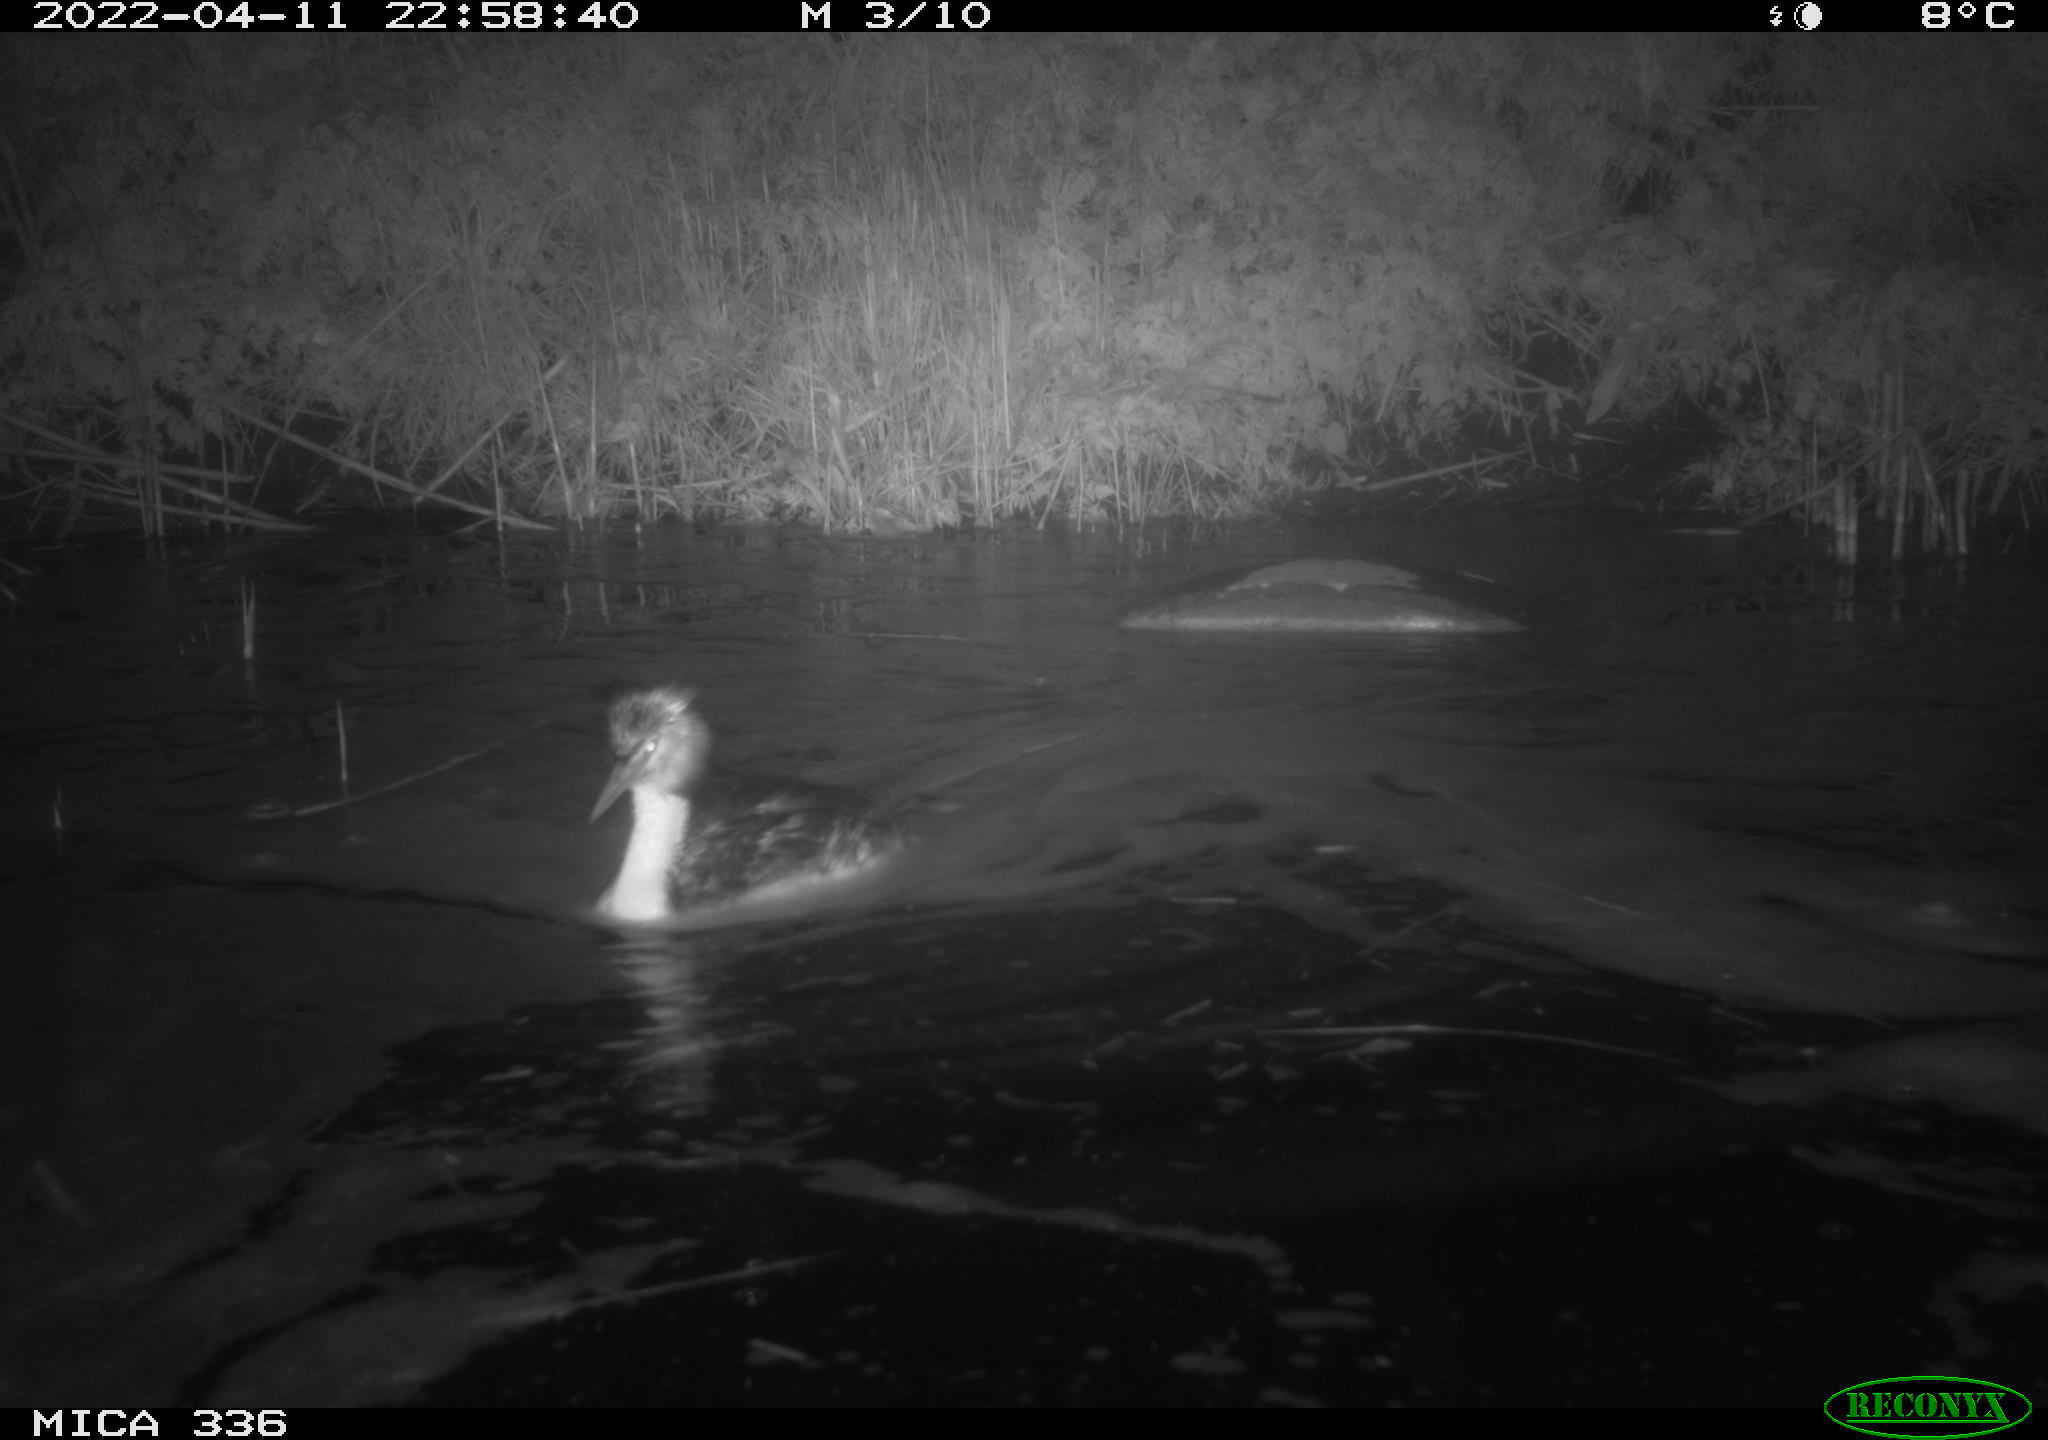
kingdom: Animalia
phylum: Chordata
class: Aves
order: Podicipediformes
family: Podicipedidae
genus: Podiceps
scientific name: Podiceps cristatus
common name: Great crested grebe
